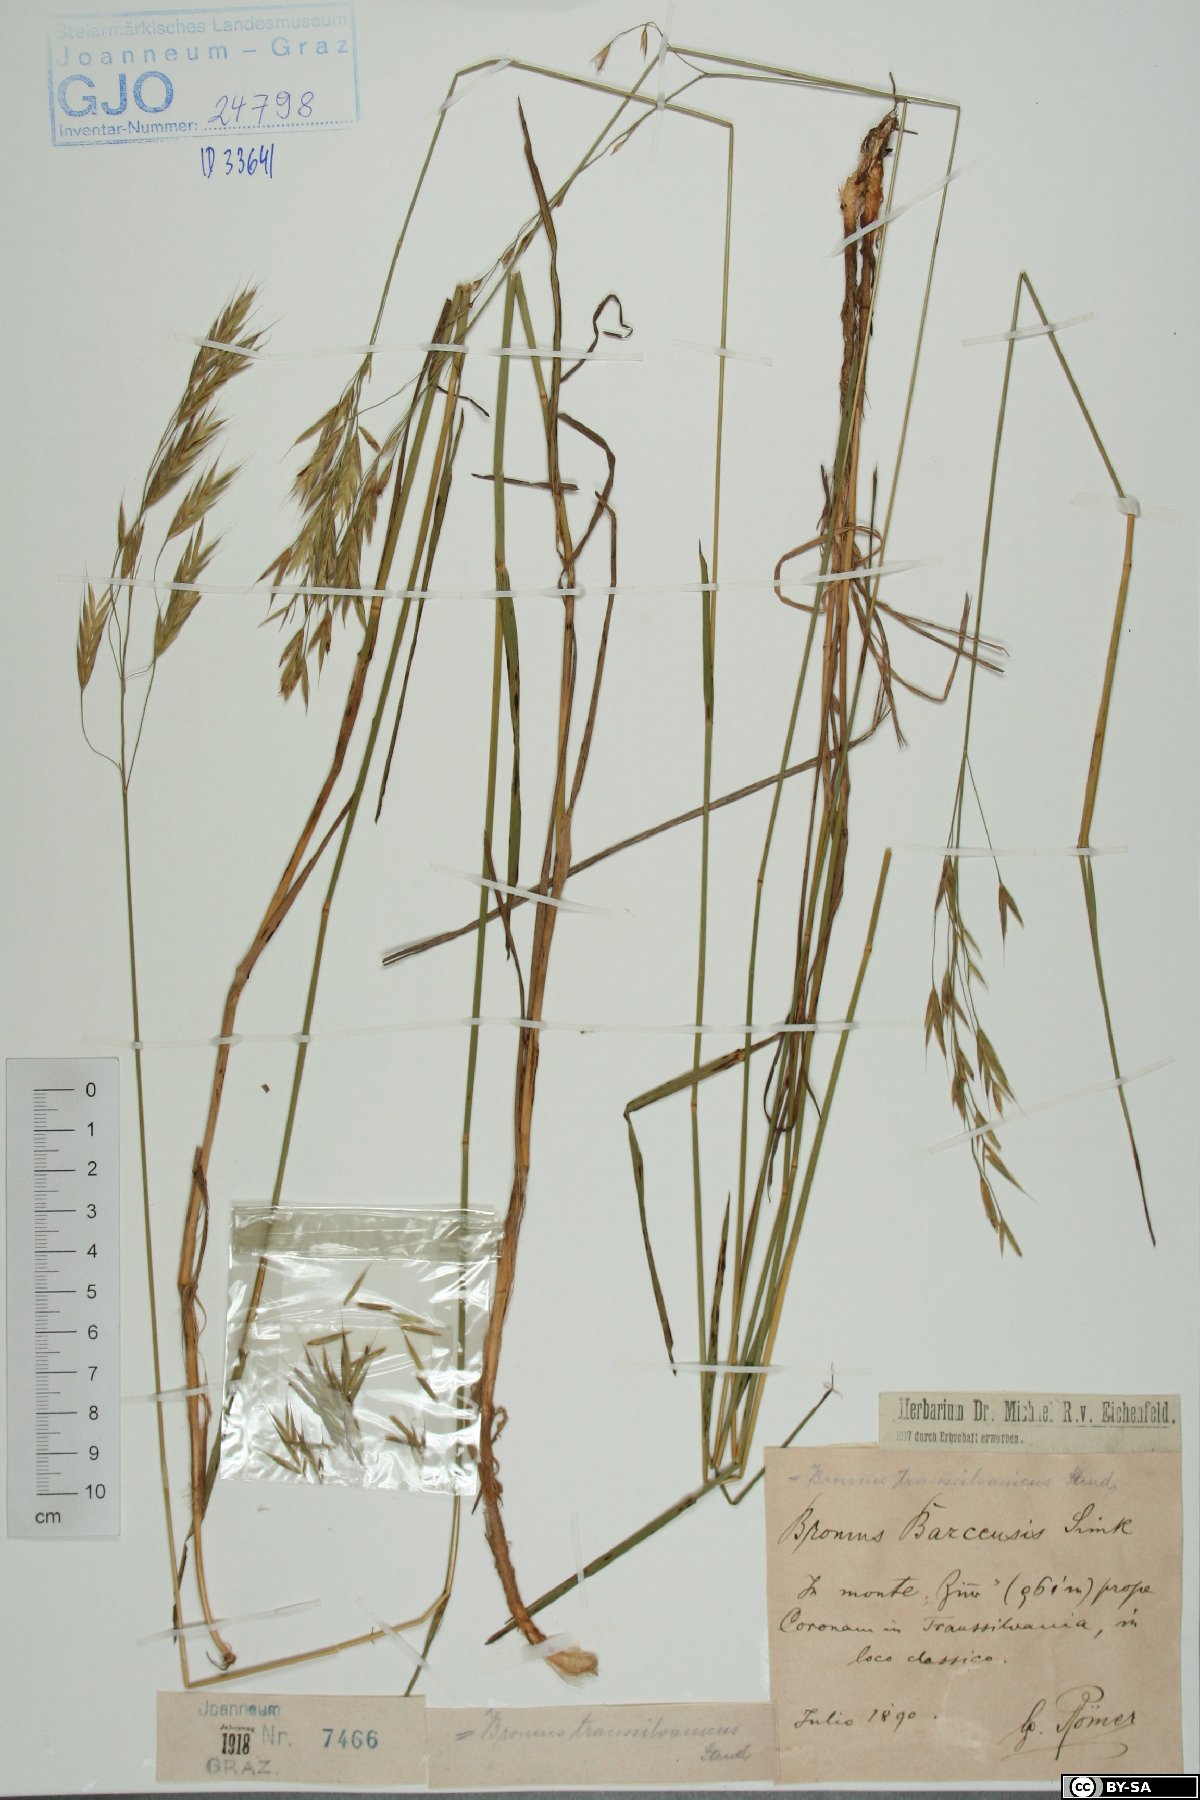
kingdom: Plantae
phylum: Tracheophyta
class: Liliopsida
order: Poales
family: Poaceae
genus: Bromus
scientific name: Bromus riparius
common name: Meadow brome
